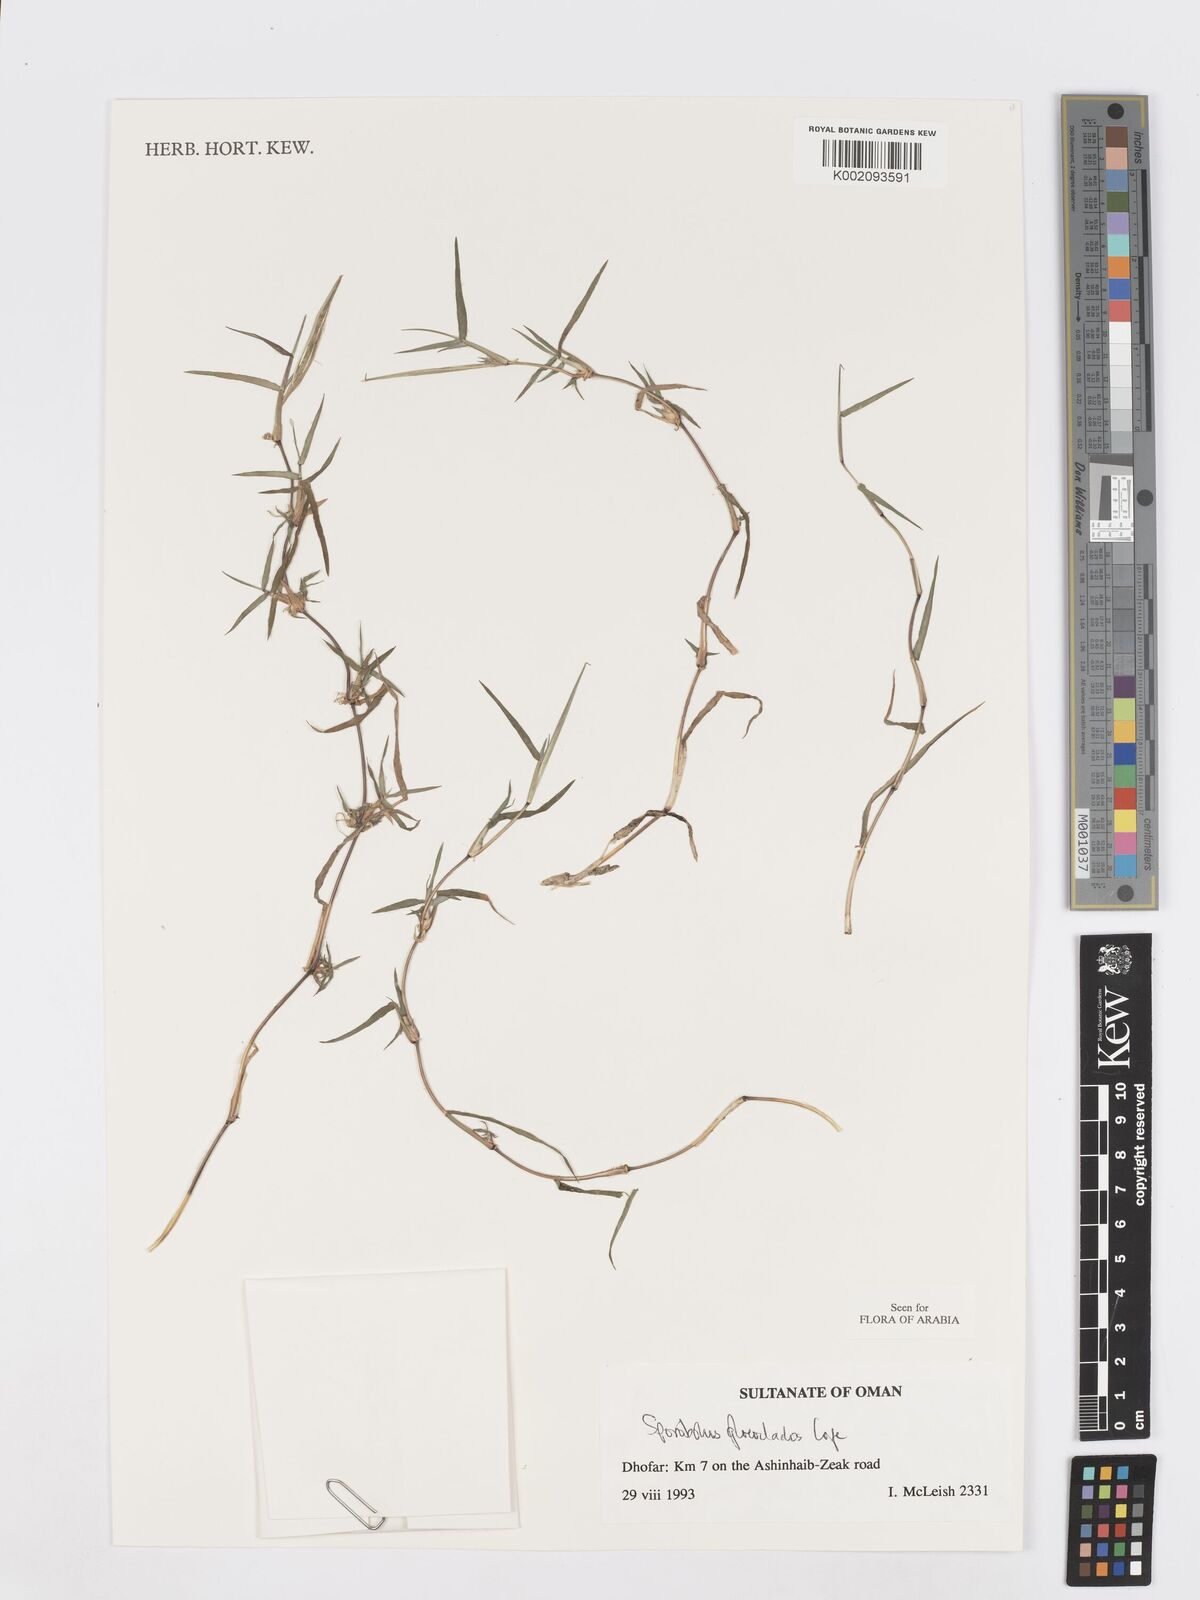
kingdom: Plantae
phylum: Tracheophyta
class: Liliopsida
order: Poales
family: Poaceae
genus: Sporobolus
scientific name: Sporobolus gloeoclados
